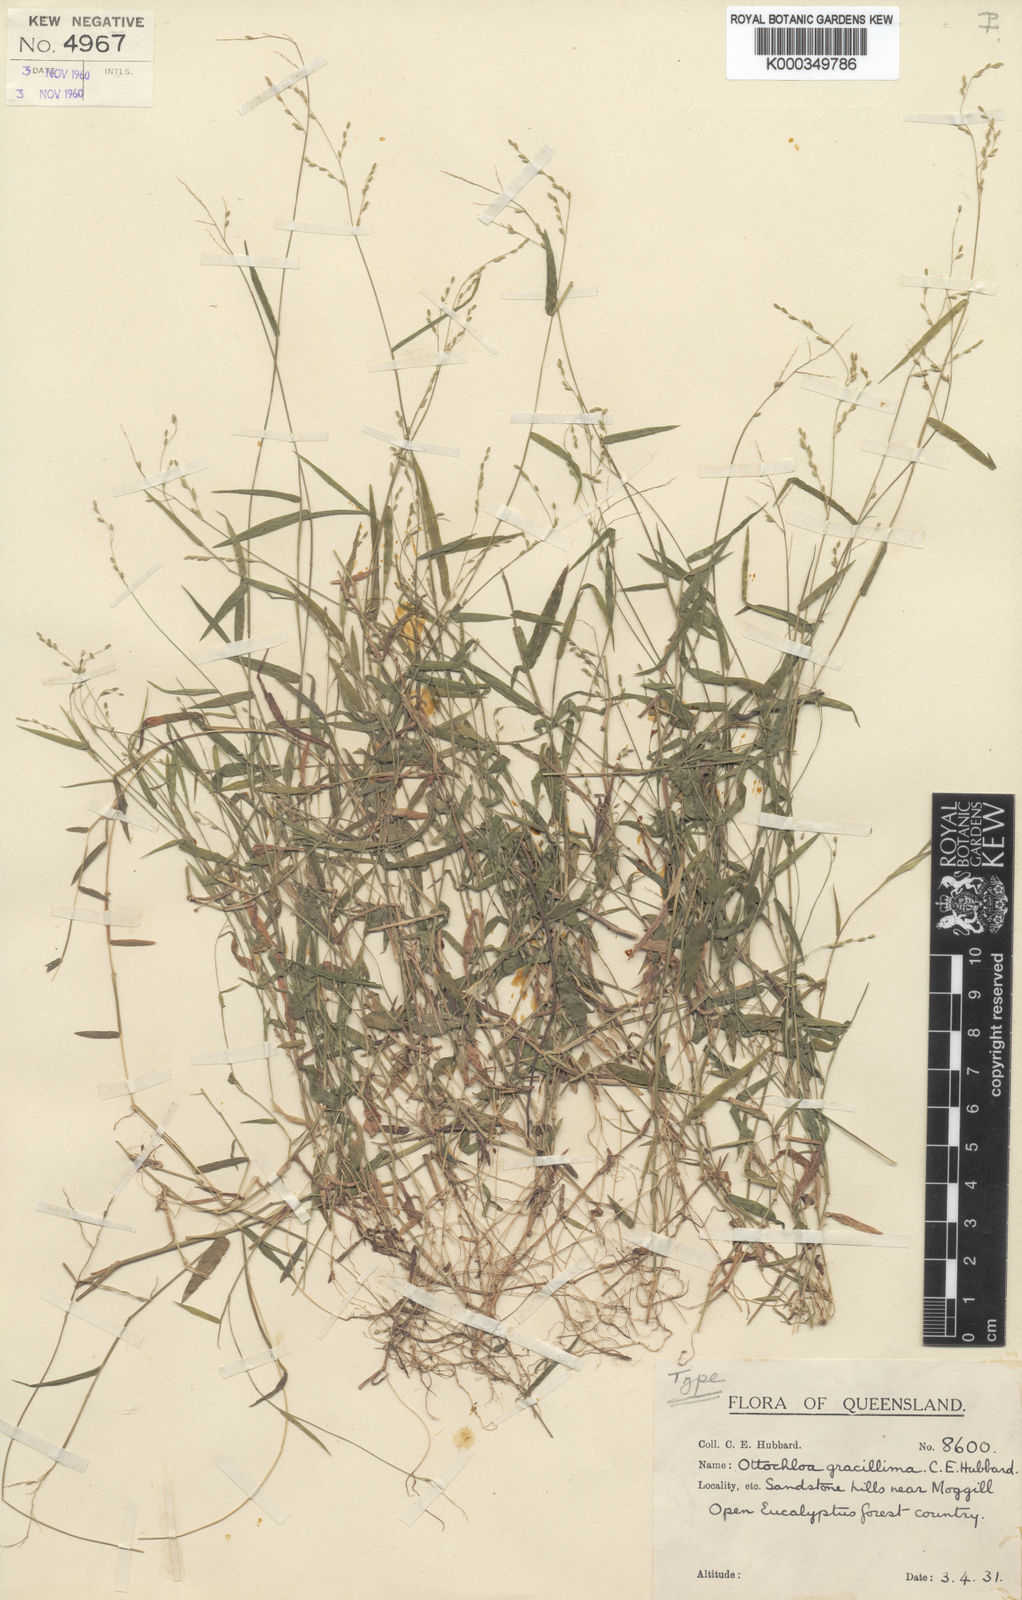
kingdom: Plantae
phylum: Tracheophyta
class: Liliopsida
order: Poales
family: Poaceae
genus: Ottochloa
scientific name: Ottochloa gracillima
